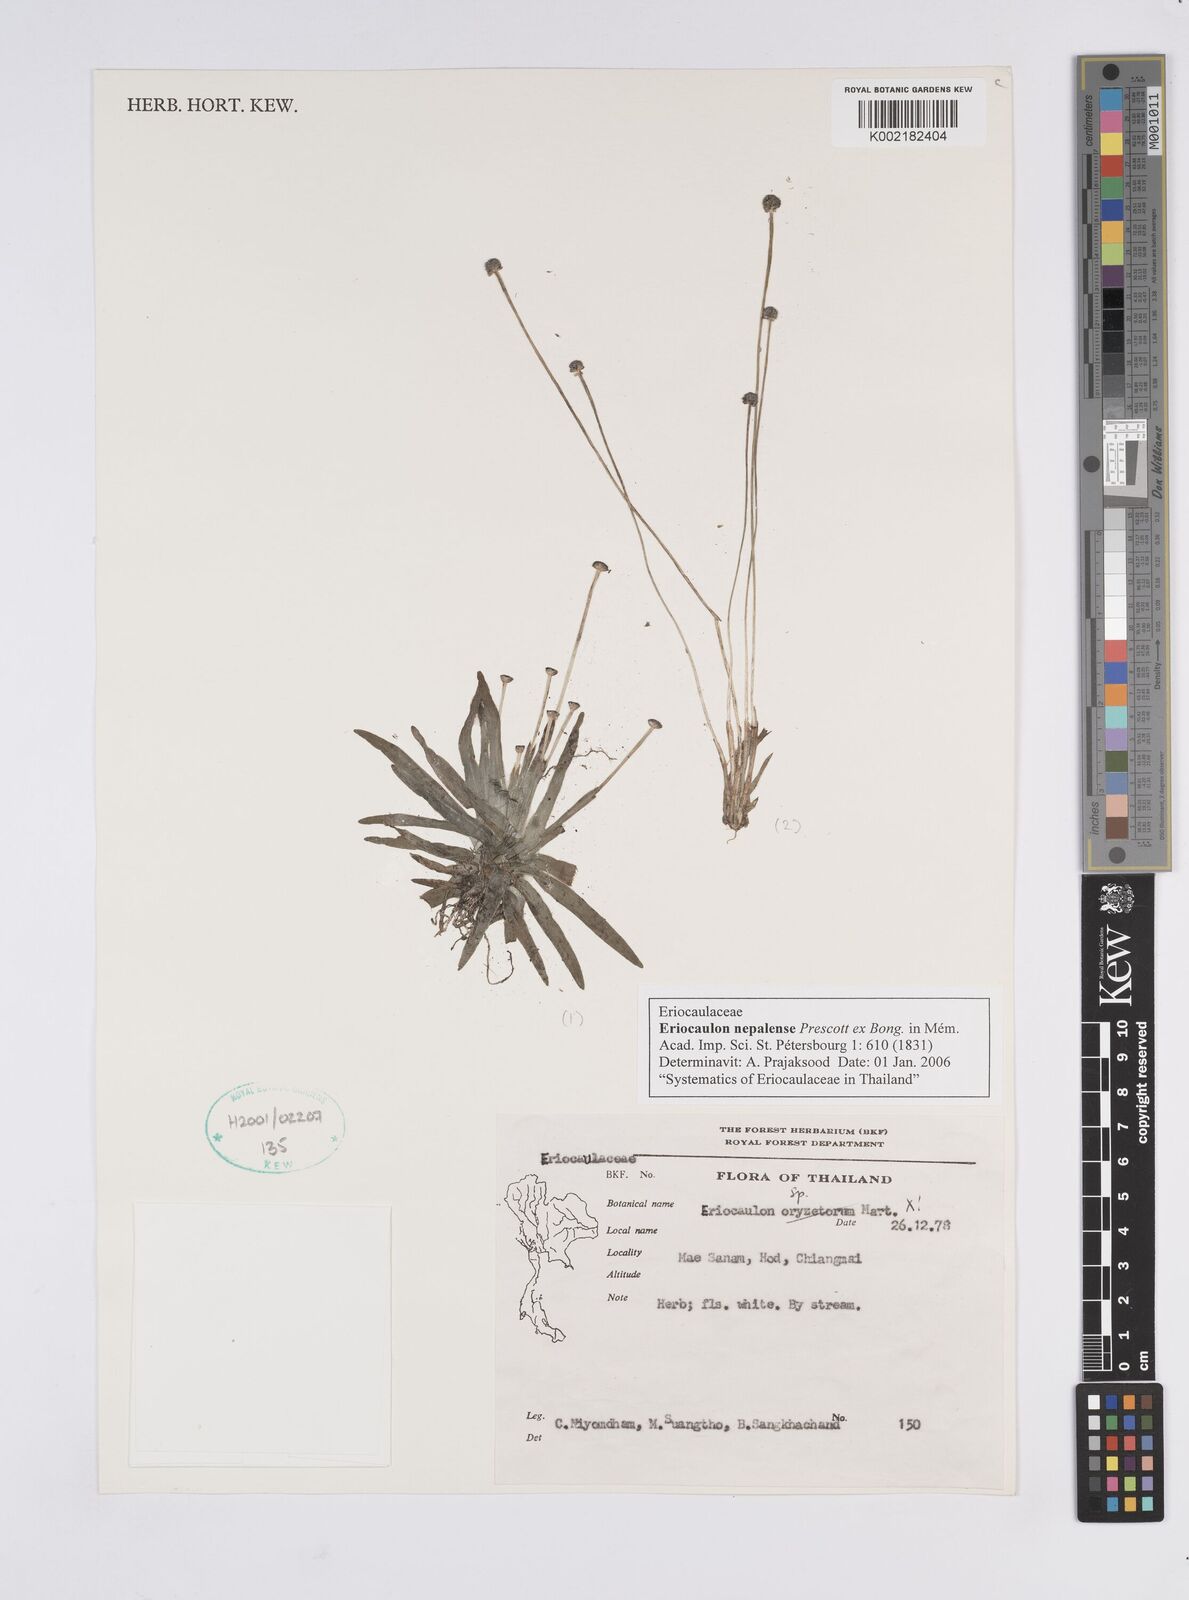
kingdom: Plantae
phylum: Tracheophyta
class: Liliopsida
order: Poales
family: Eriocaulaceae
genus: Eriocaulon
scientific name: Eriocaulon nepalense
